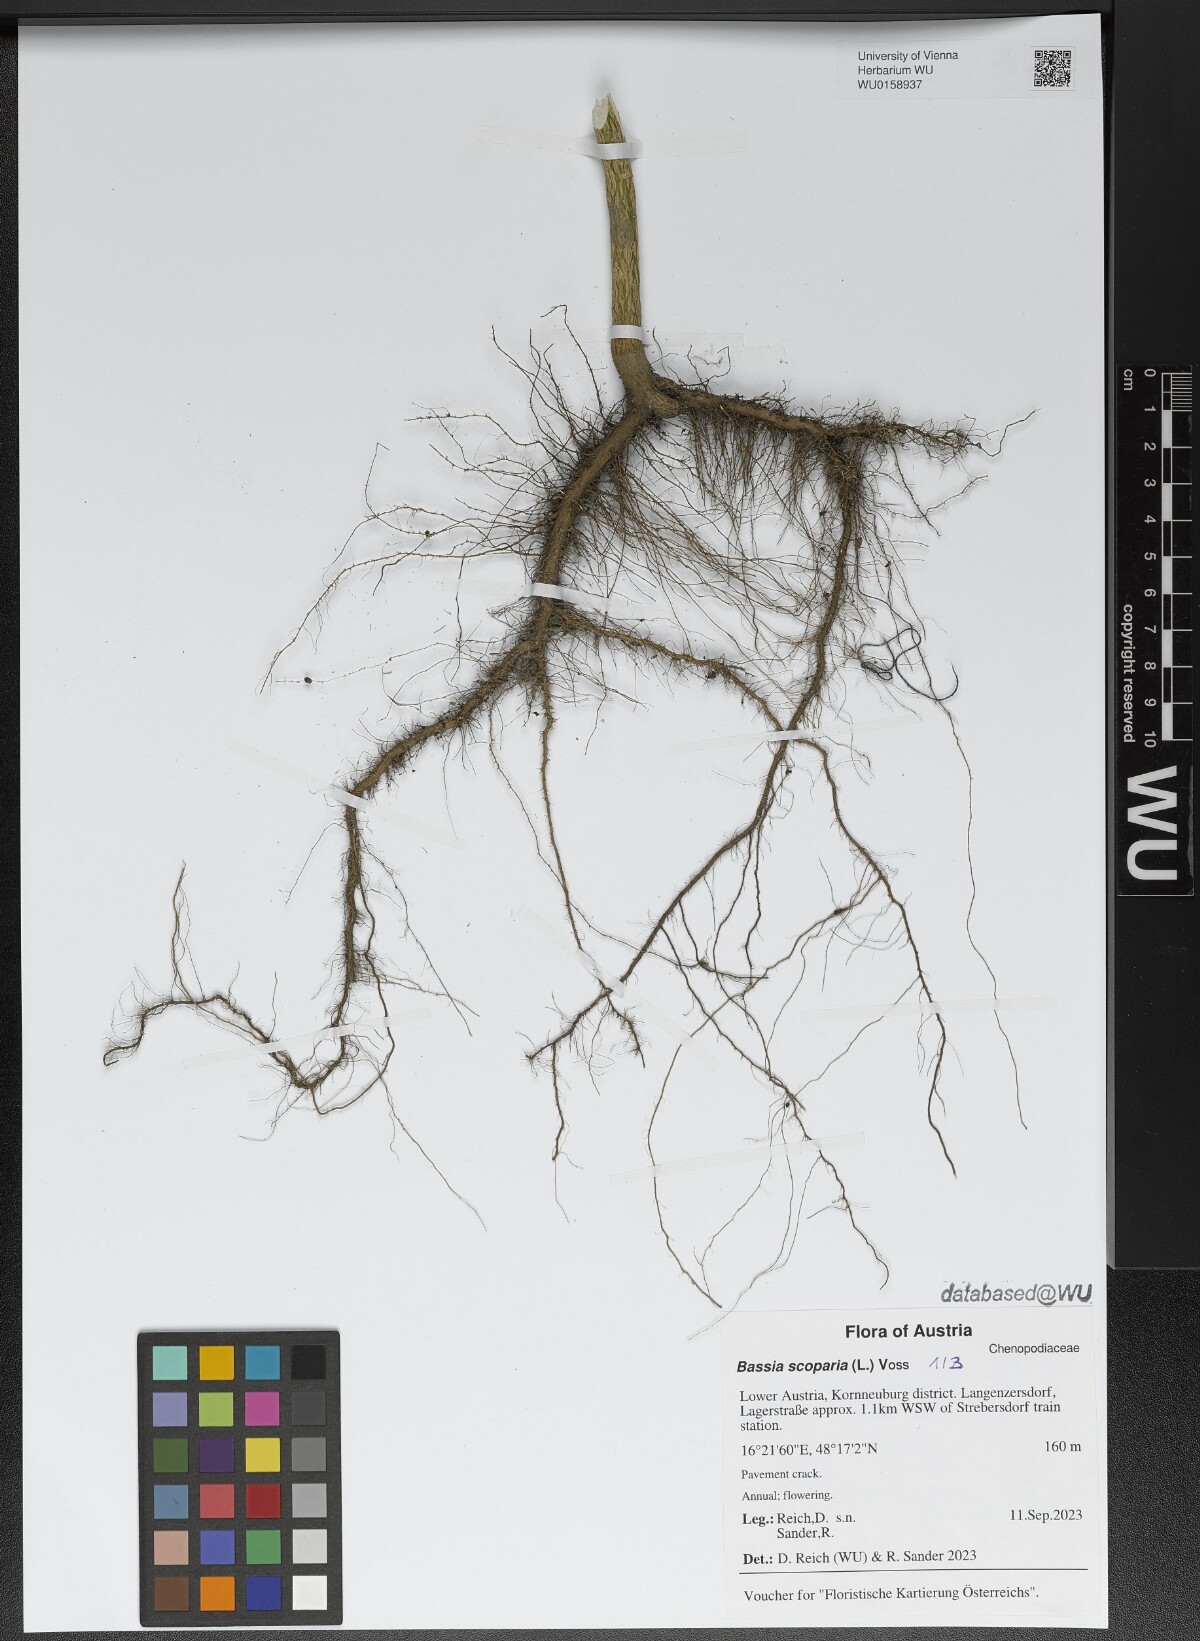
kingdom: Plantae
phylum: Tracheophyta
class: Magnoliopsida
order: Caryophyllales
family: Amaranthaceae
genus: Bassia
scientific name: Bassia scoparia
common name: Belvedere
